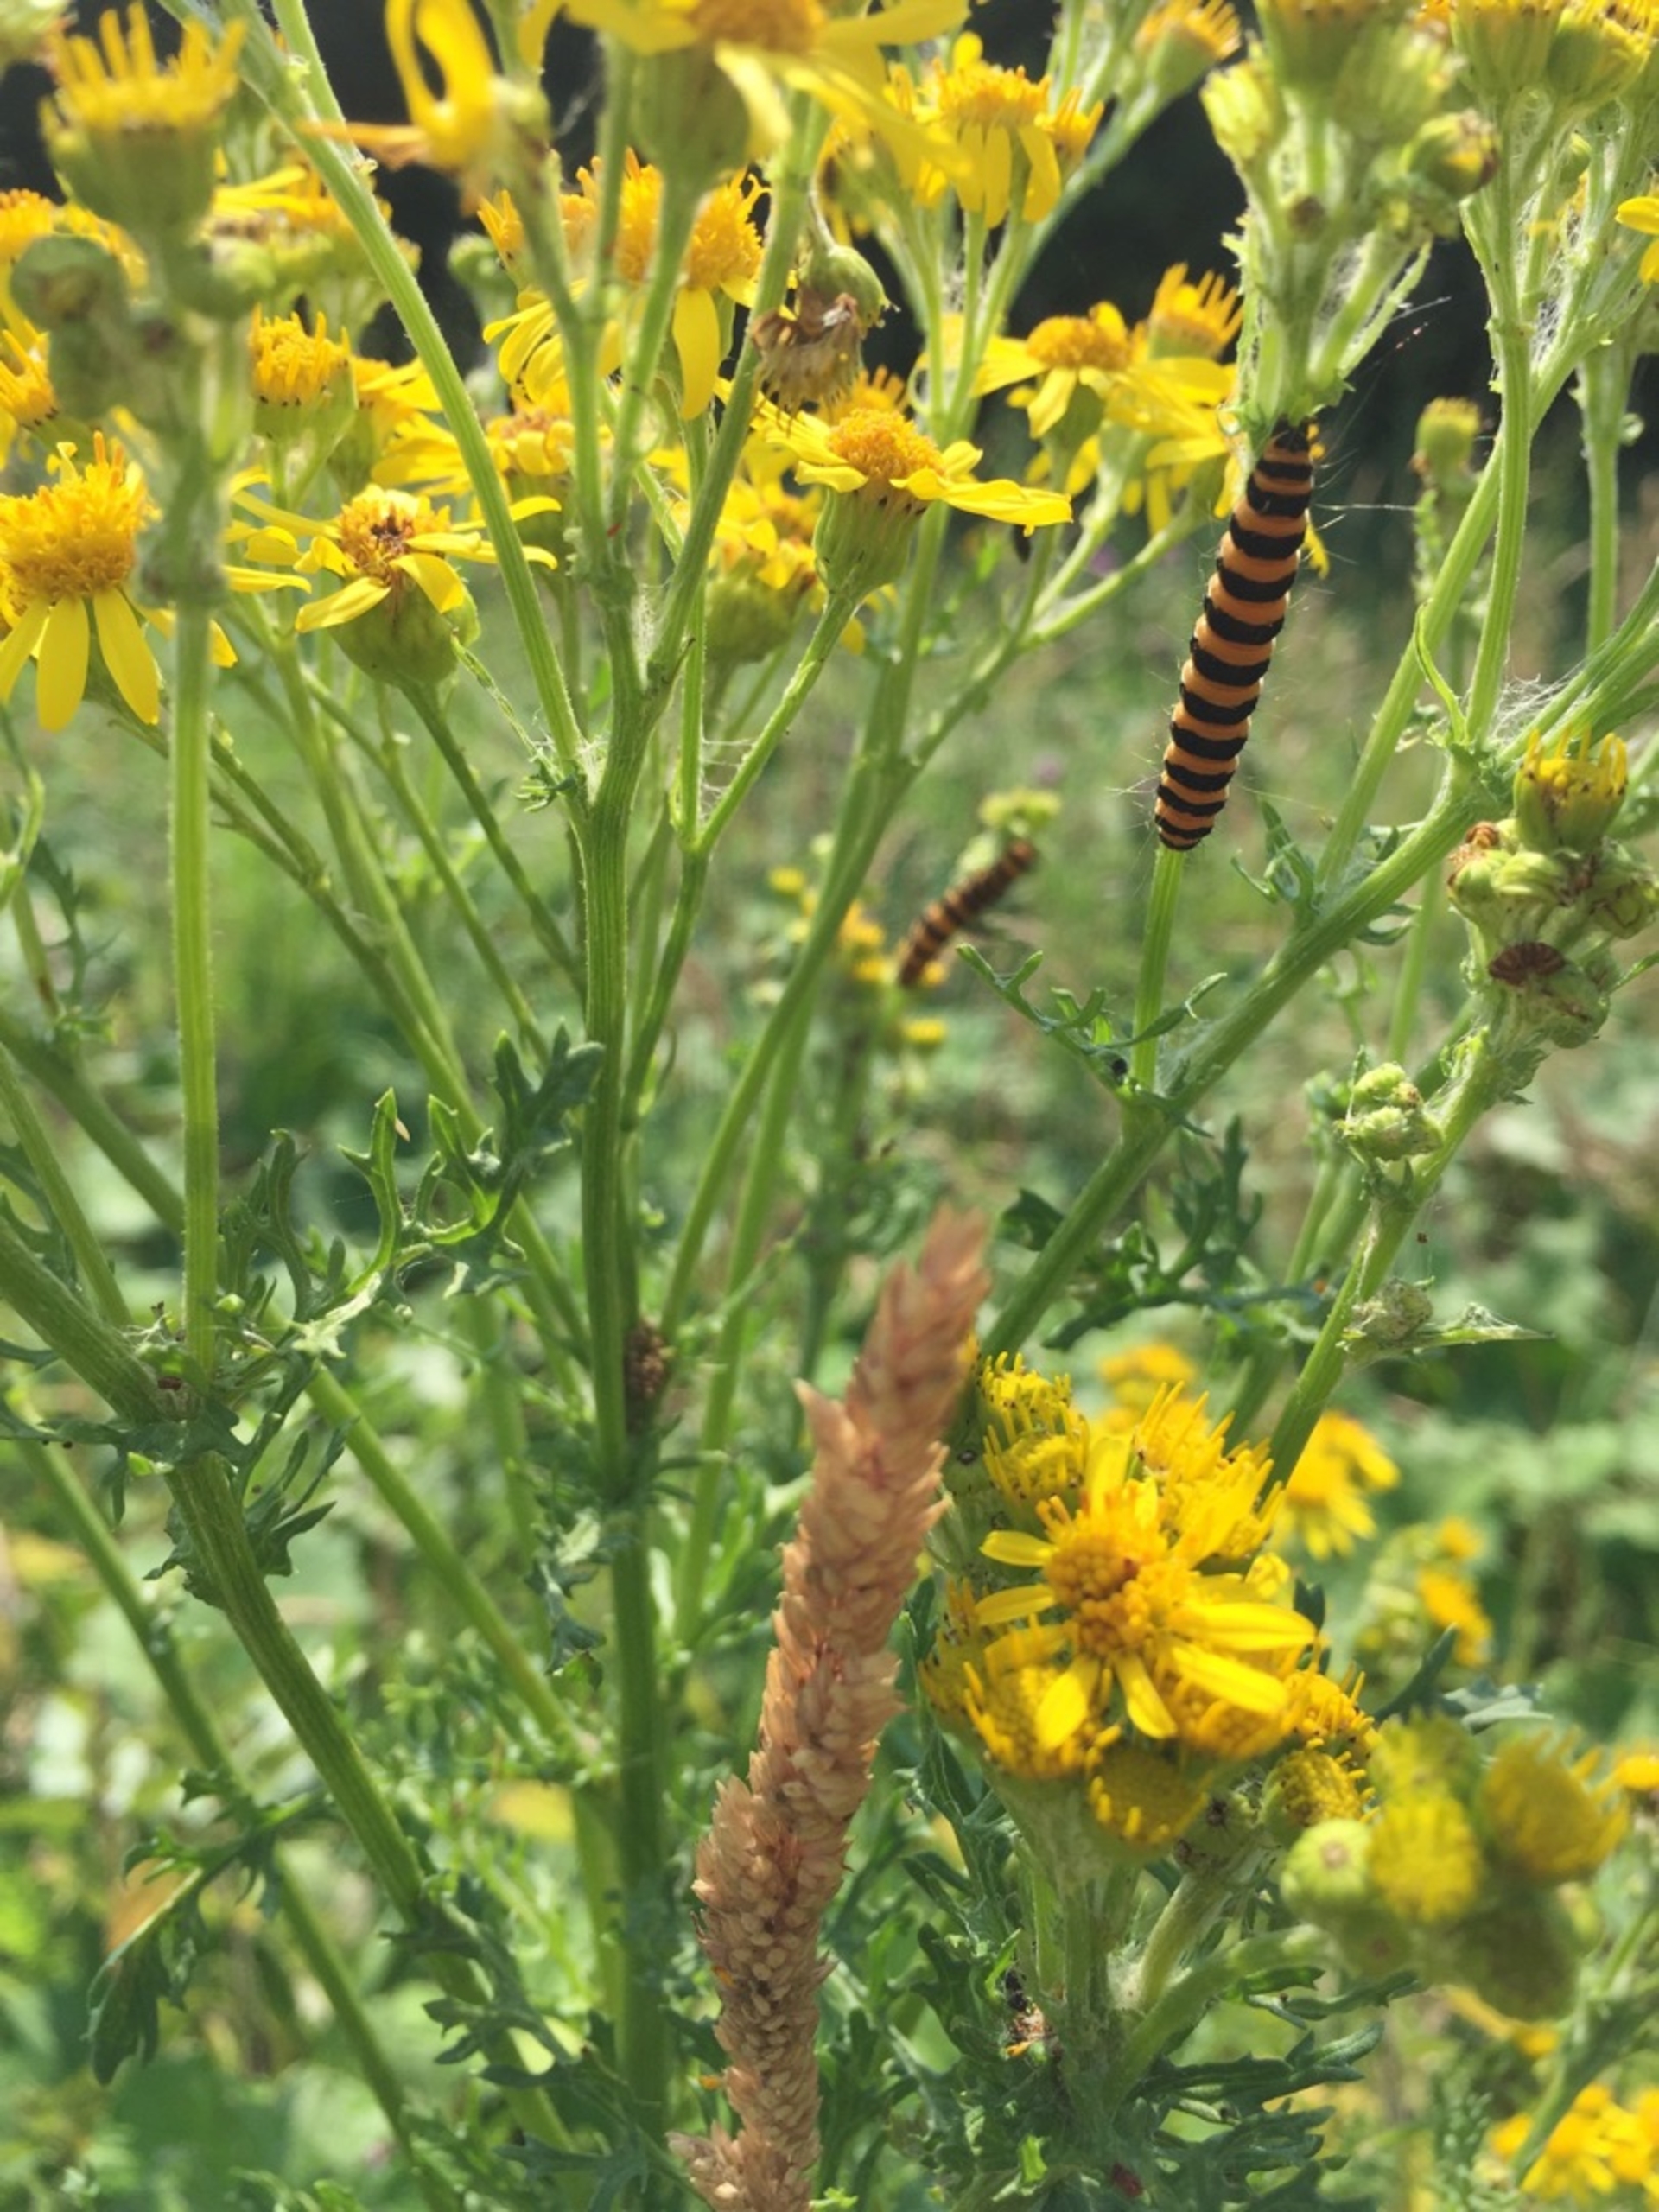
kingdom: Animalia
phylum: Arthropoda
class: Insecta
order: Lepidoptera
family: Erebidae
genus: Tyria
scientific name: Tyria jacobaeae
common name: Blodplet
